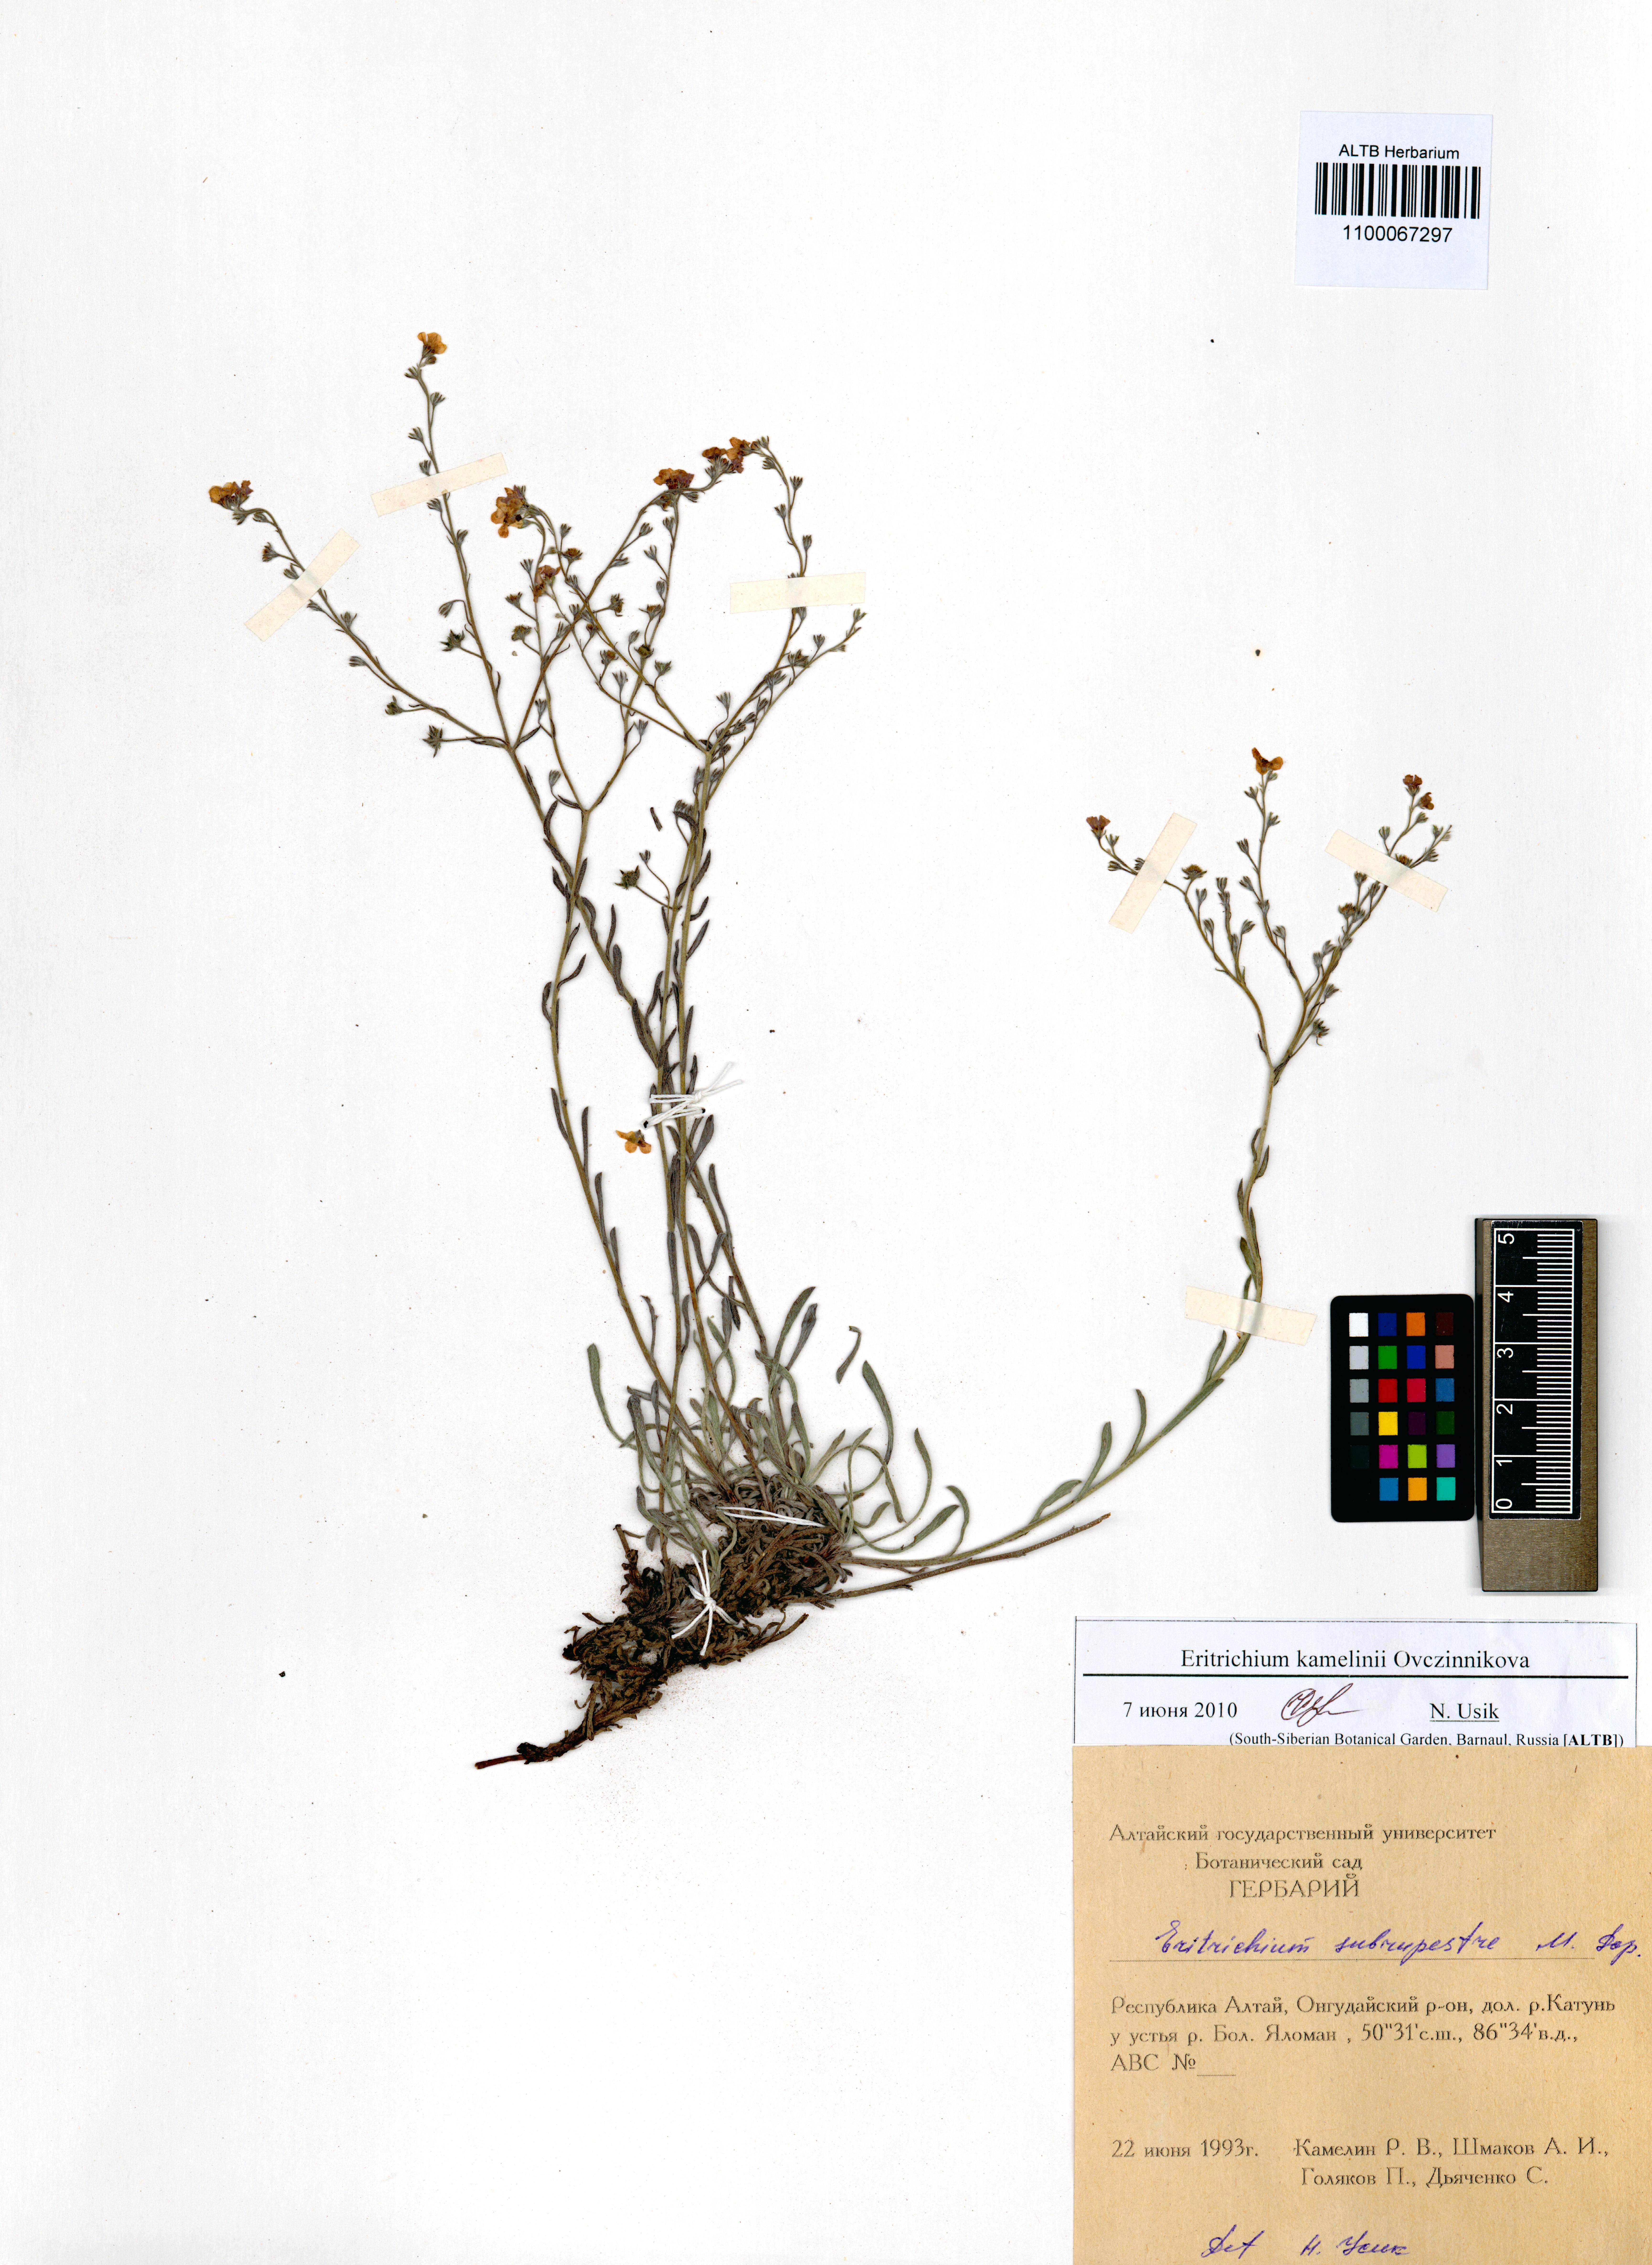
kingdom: Plantae
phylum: Tracheophyta
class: Magnoliopsida
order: Boraginales
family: Boraginaceae
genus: Eritrichium
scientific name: Eritrichium kamelinii
